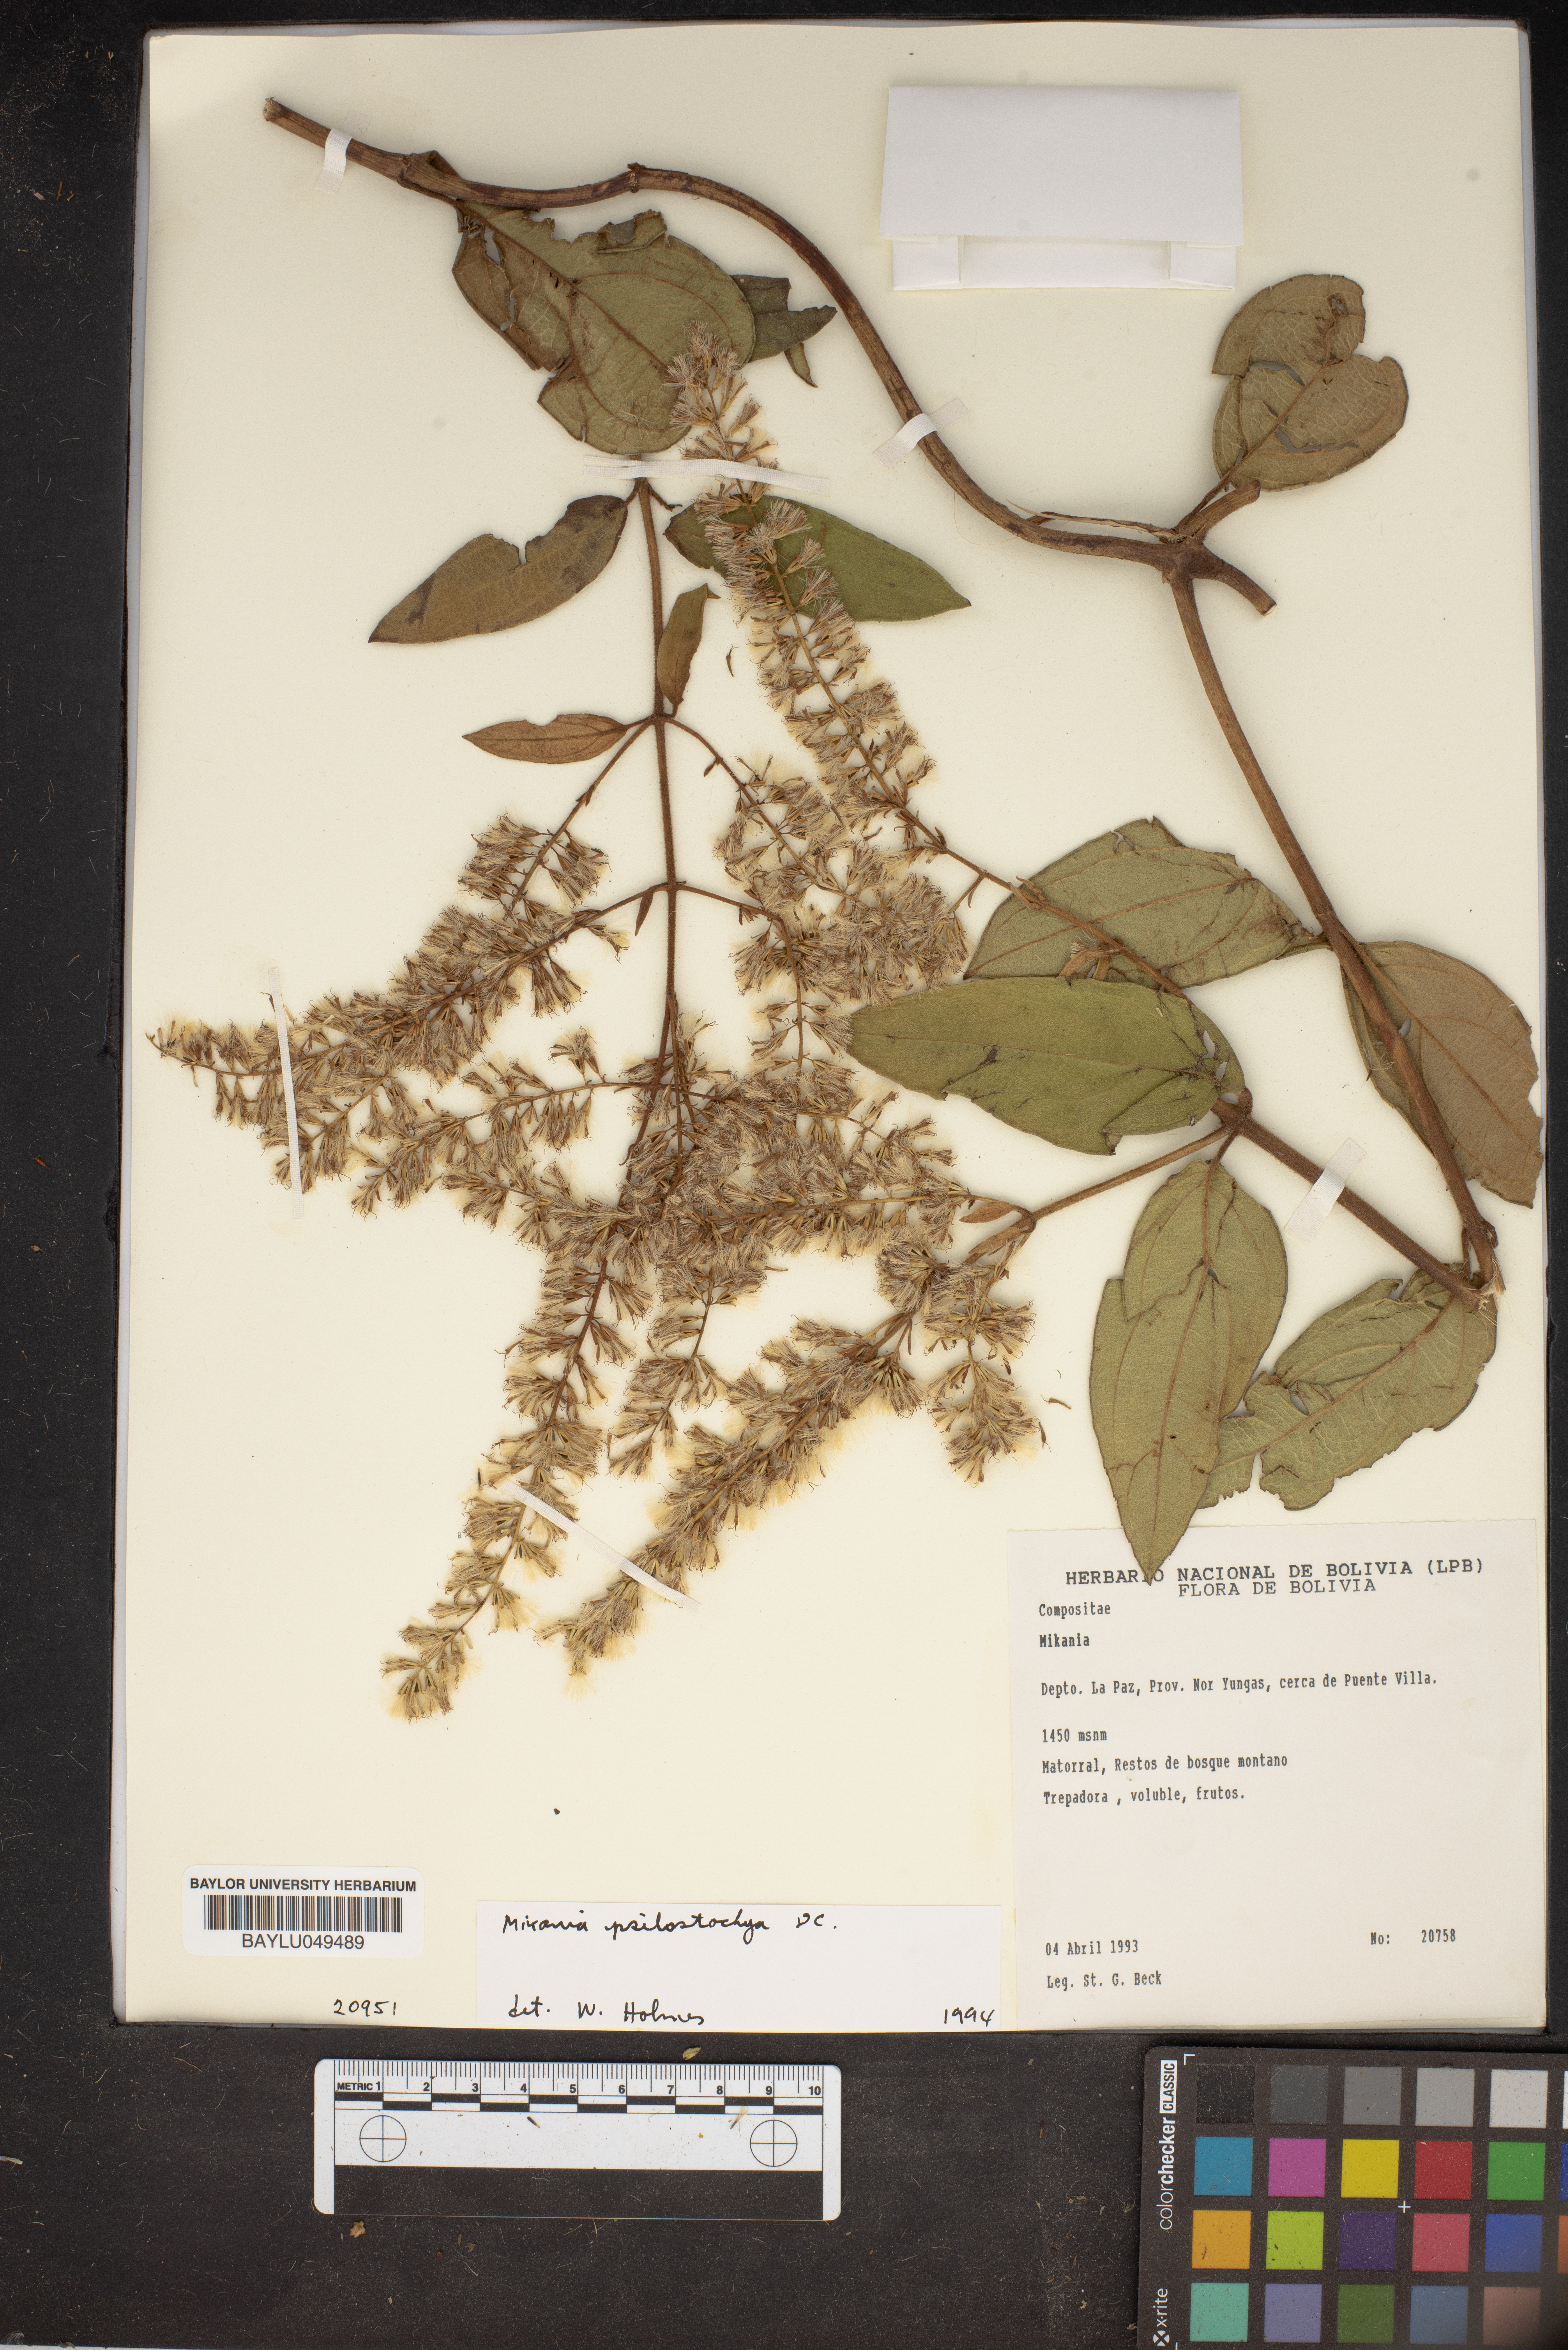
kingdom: Plantae
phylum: Tracheophyta
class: Magnoliopsida
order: Asterales
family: Asteraceae
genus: Mikania
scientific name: Mikania psilostachya
